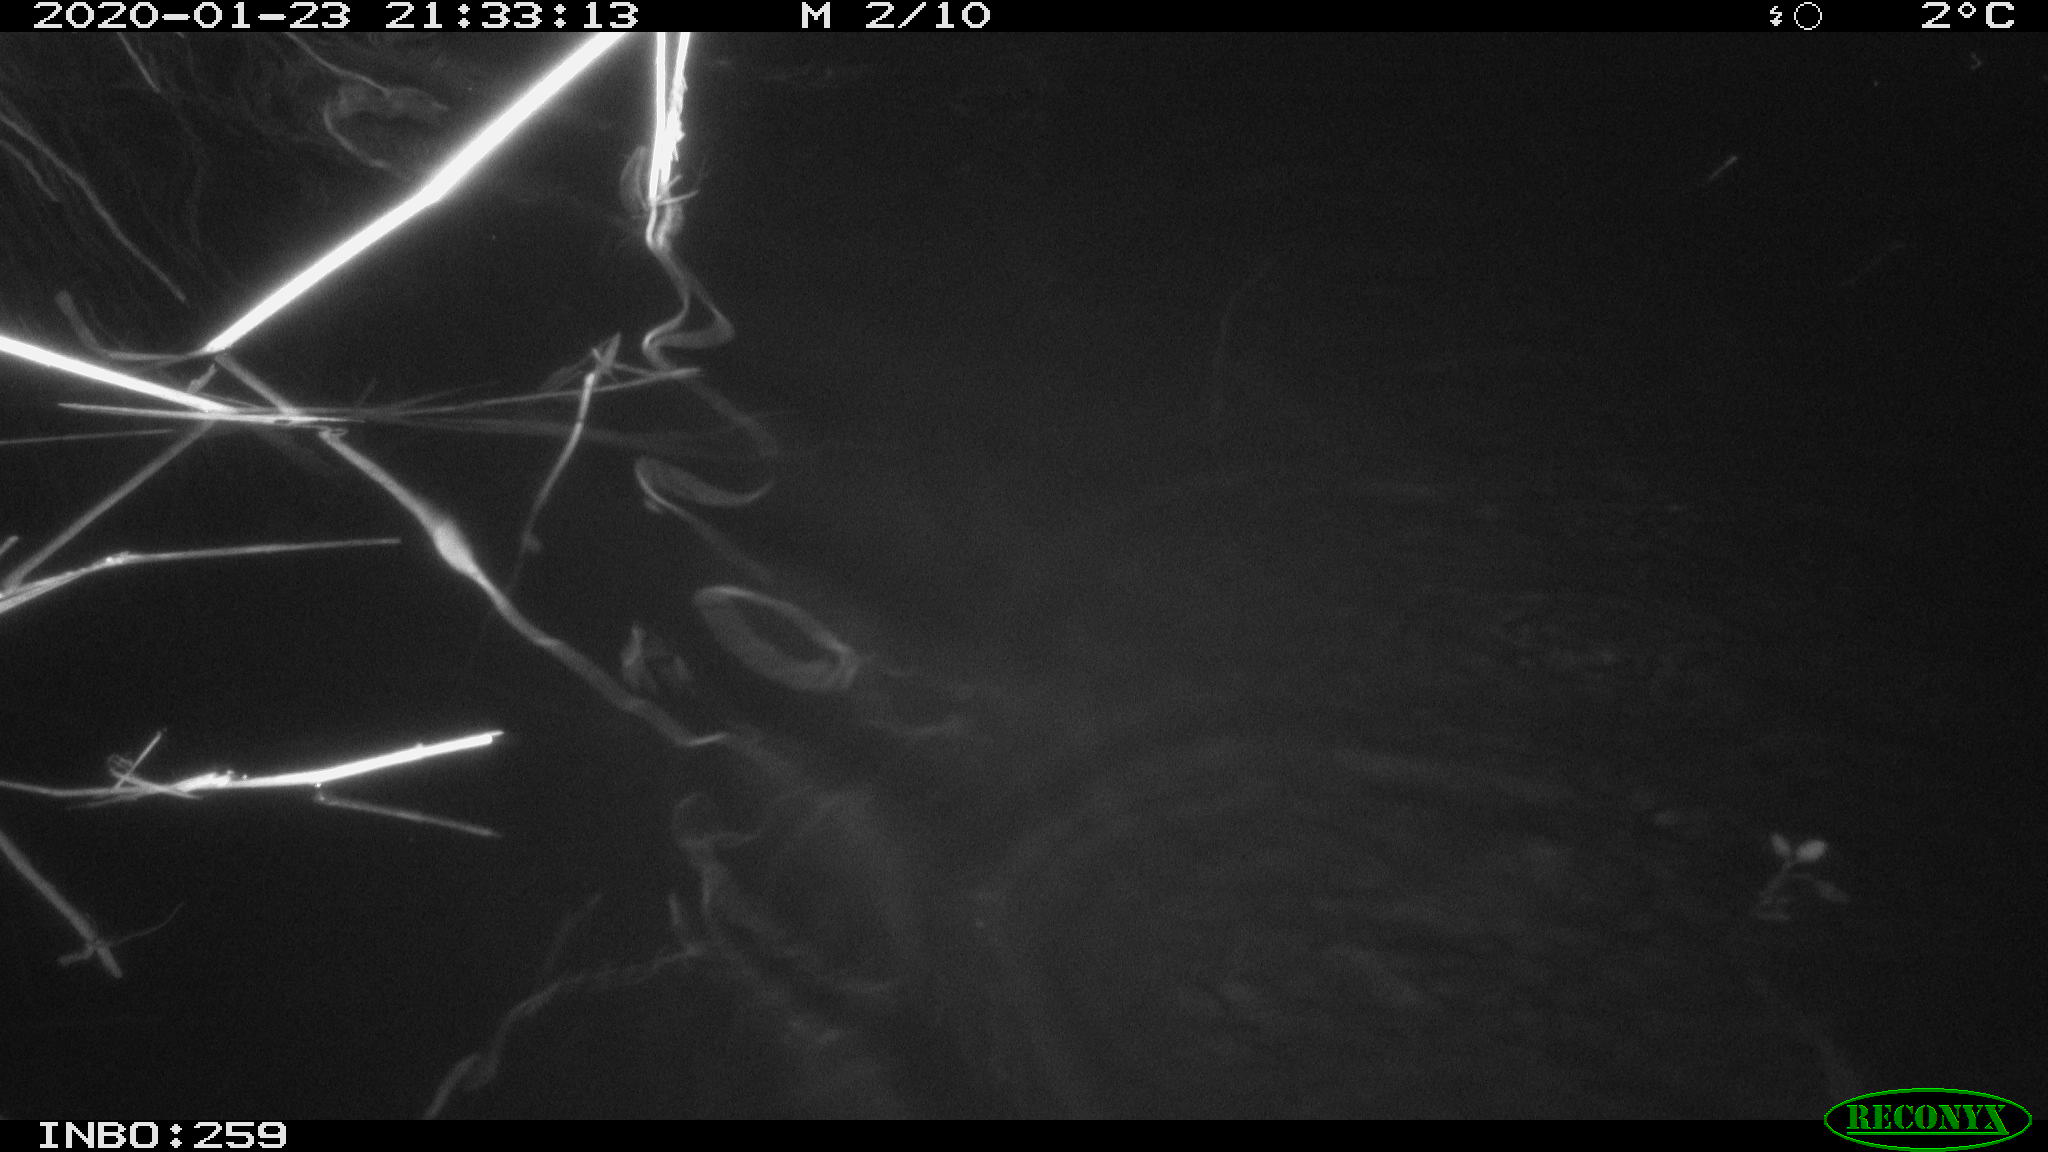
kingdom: Animalia
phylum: Chordata
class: Mammalia
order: Rodentia
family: Cricetidae
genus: Ondatra
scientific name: Ondatra zibethicus
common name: Muskrat
